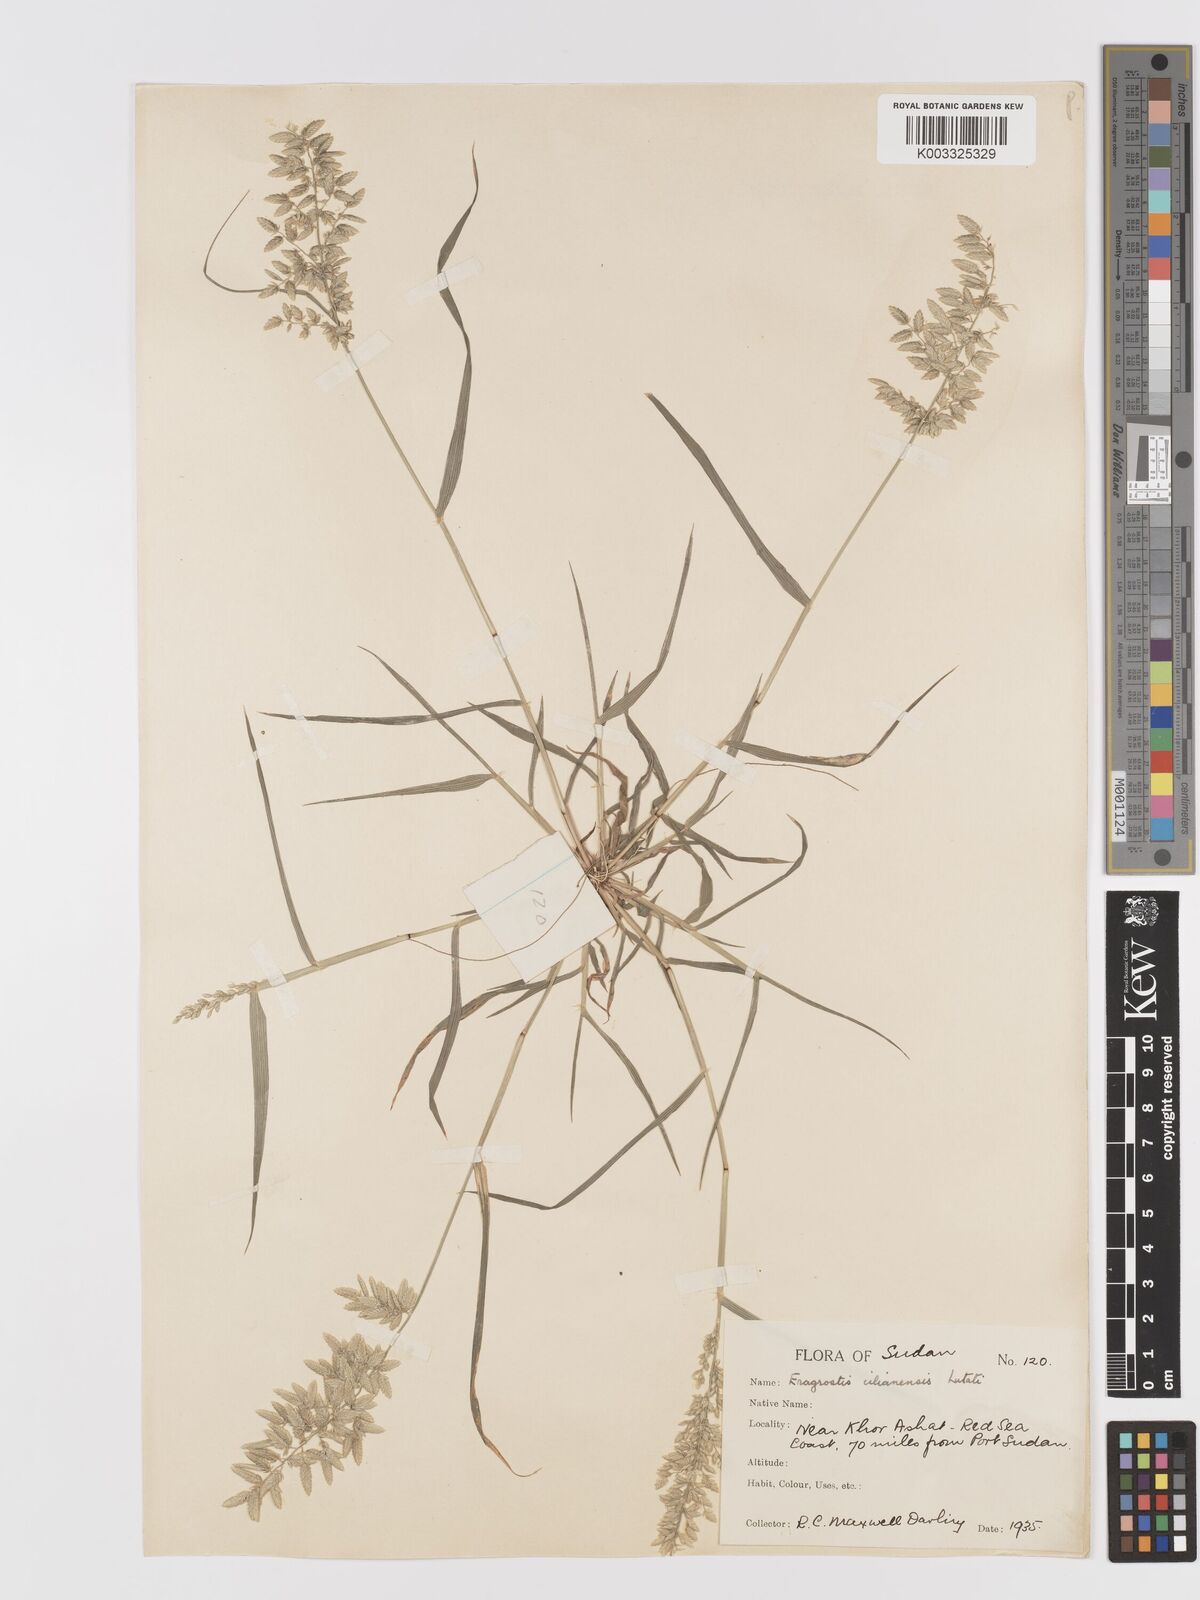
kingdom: Plantae
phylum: Tracheophyta
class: Liliopsida
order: Poales
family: Poaceae
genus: Eragrostis
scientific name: Eragrostis cilianensis
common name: Stinkgrass
